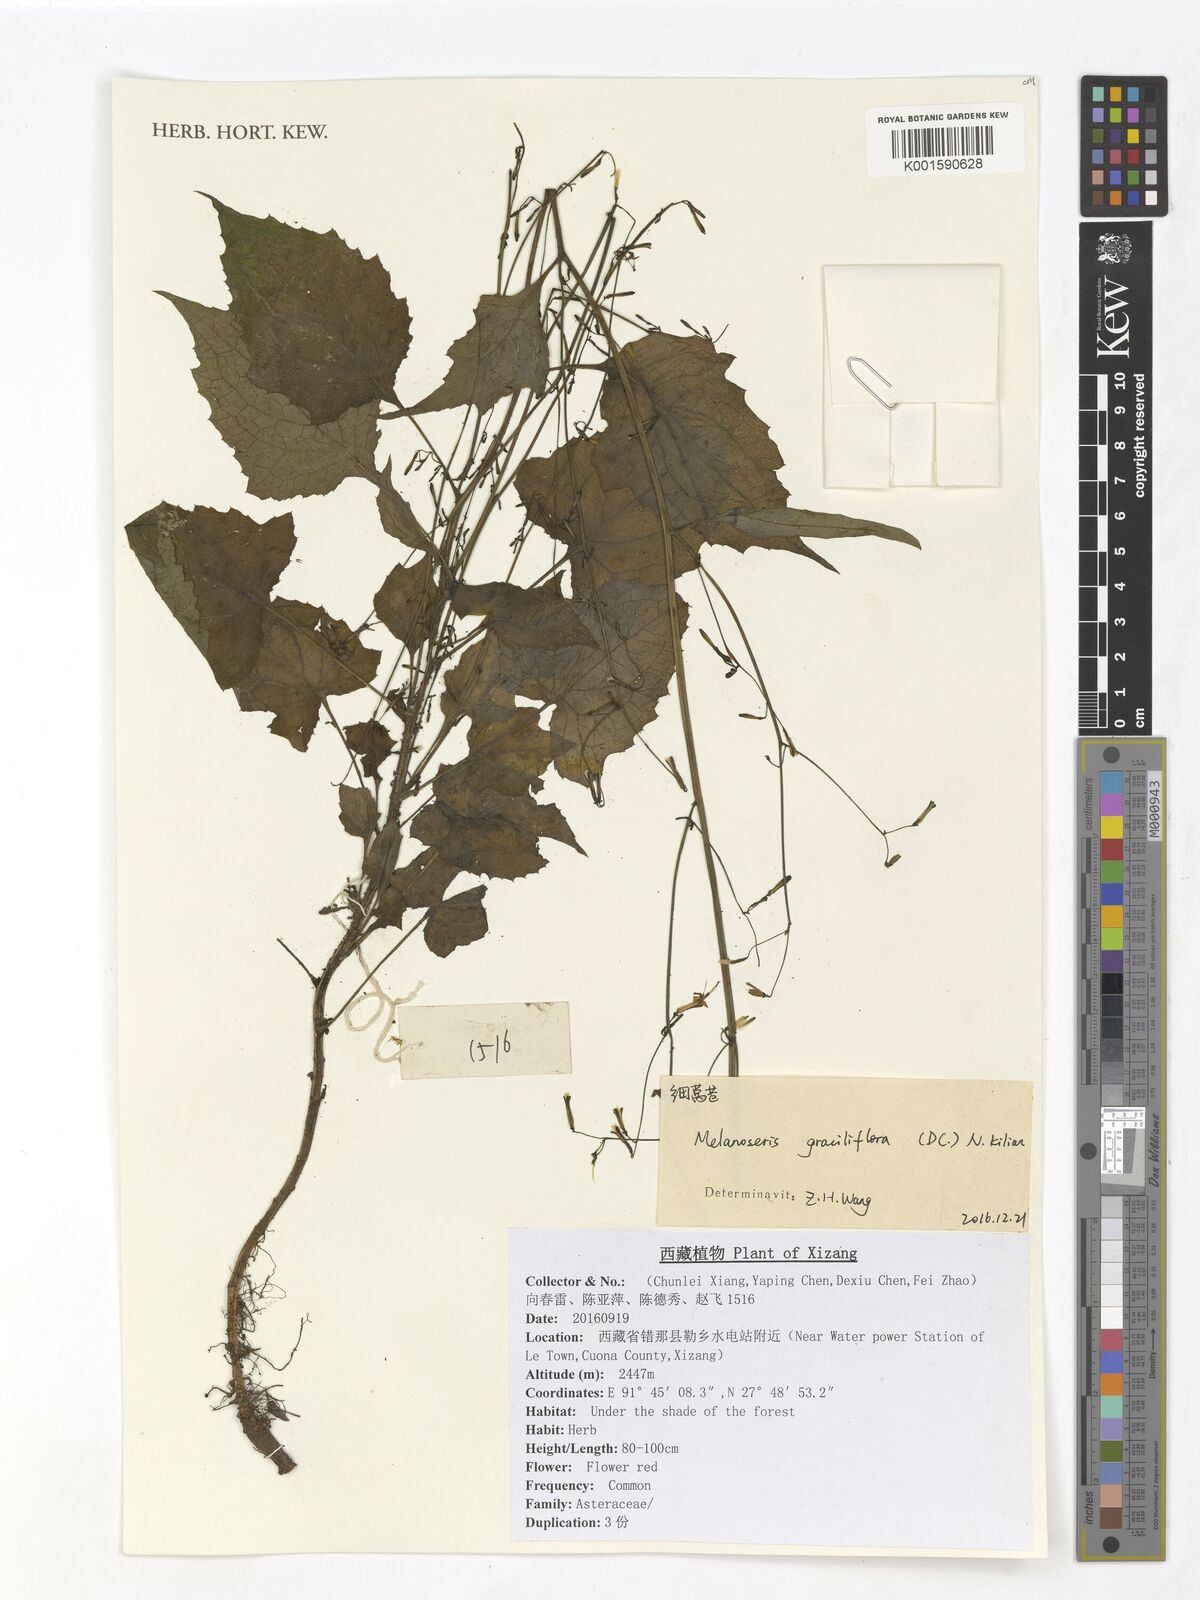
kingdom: Plantae
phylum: Tracheophyta
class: Magnoliopsida
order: Asterales
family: Asteraceae
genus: Melanoseris
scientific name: Melanoseris graciliflora
